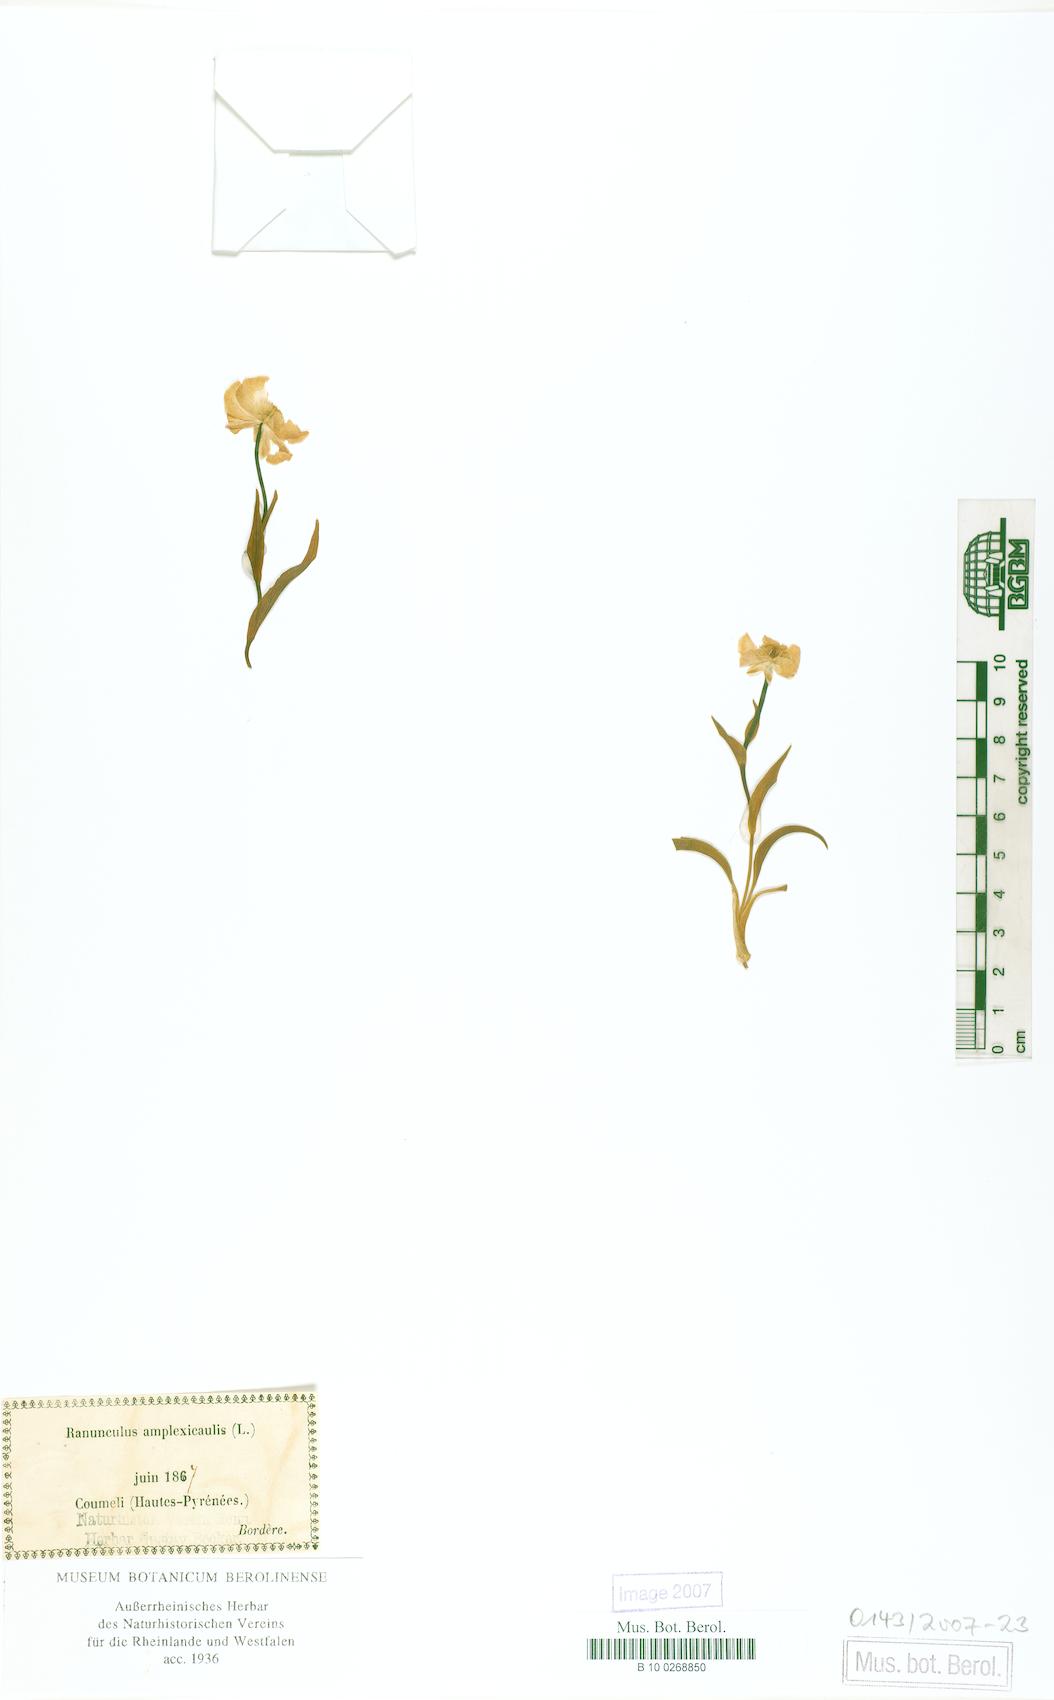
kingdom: Plantae
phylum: Tracheophyta
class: Magnoliopsida
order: Ranunculales
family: Ranunculaceae
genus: Ranunculus
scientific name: Ranunculus amplexicaulis
